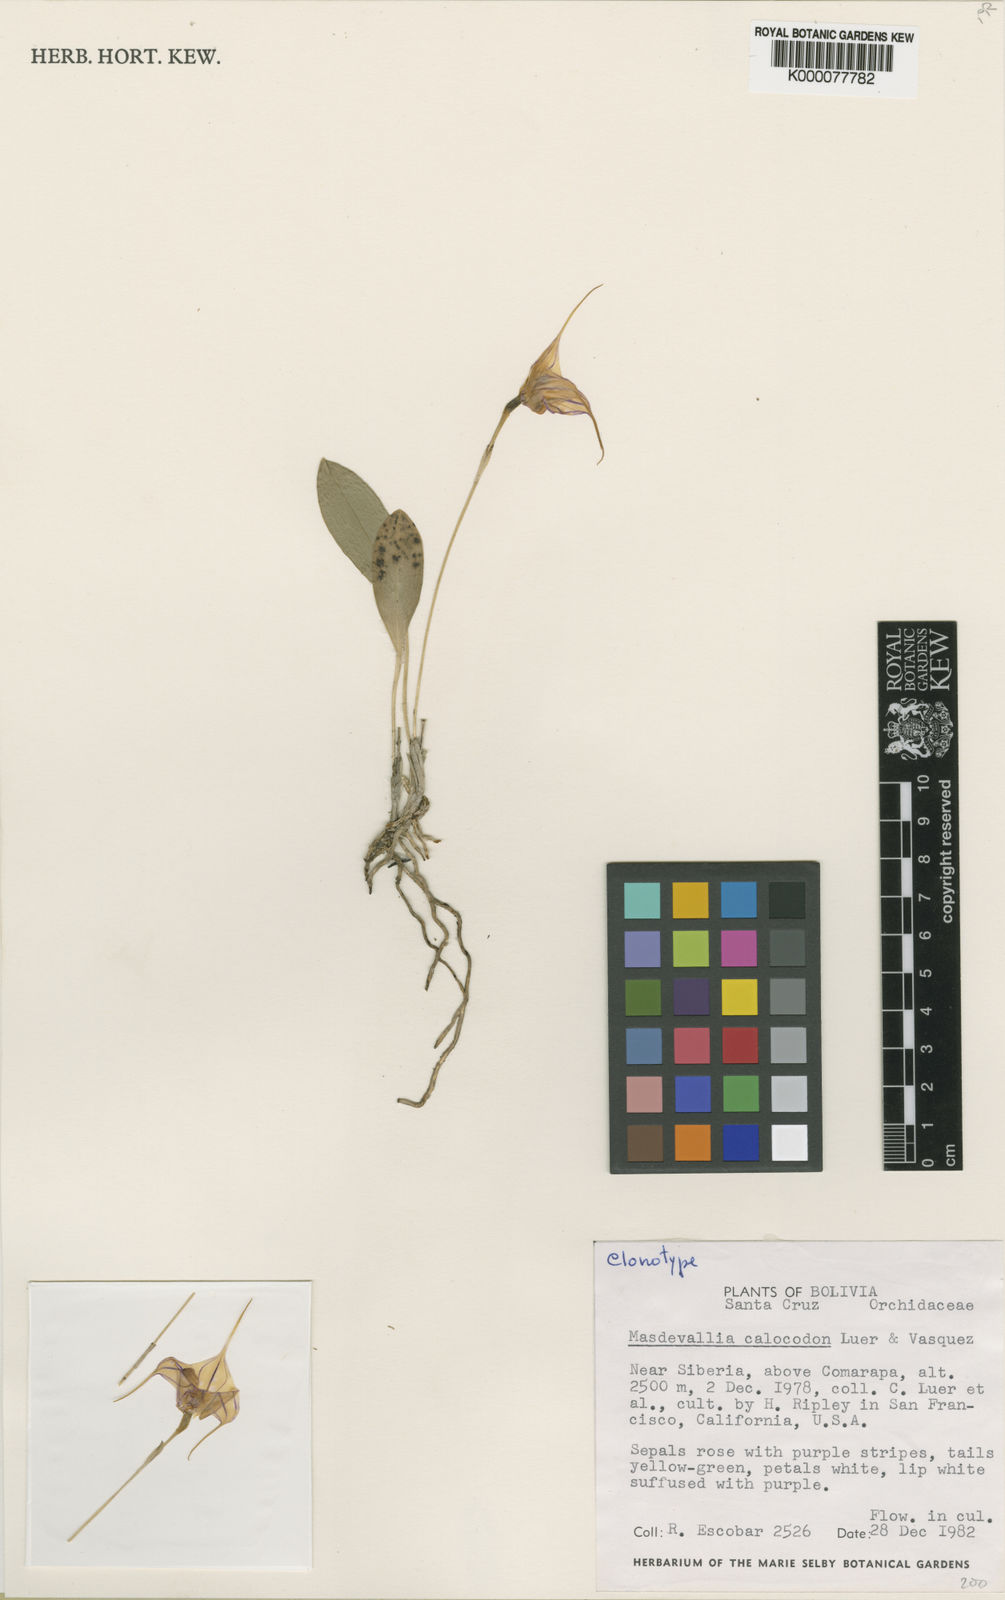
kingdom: Plantae
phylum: Tracheophyta
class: Liliopsida
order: Asparagales
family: Orchidaceae
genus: Masdevallia
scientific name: Masdevallia
